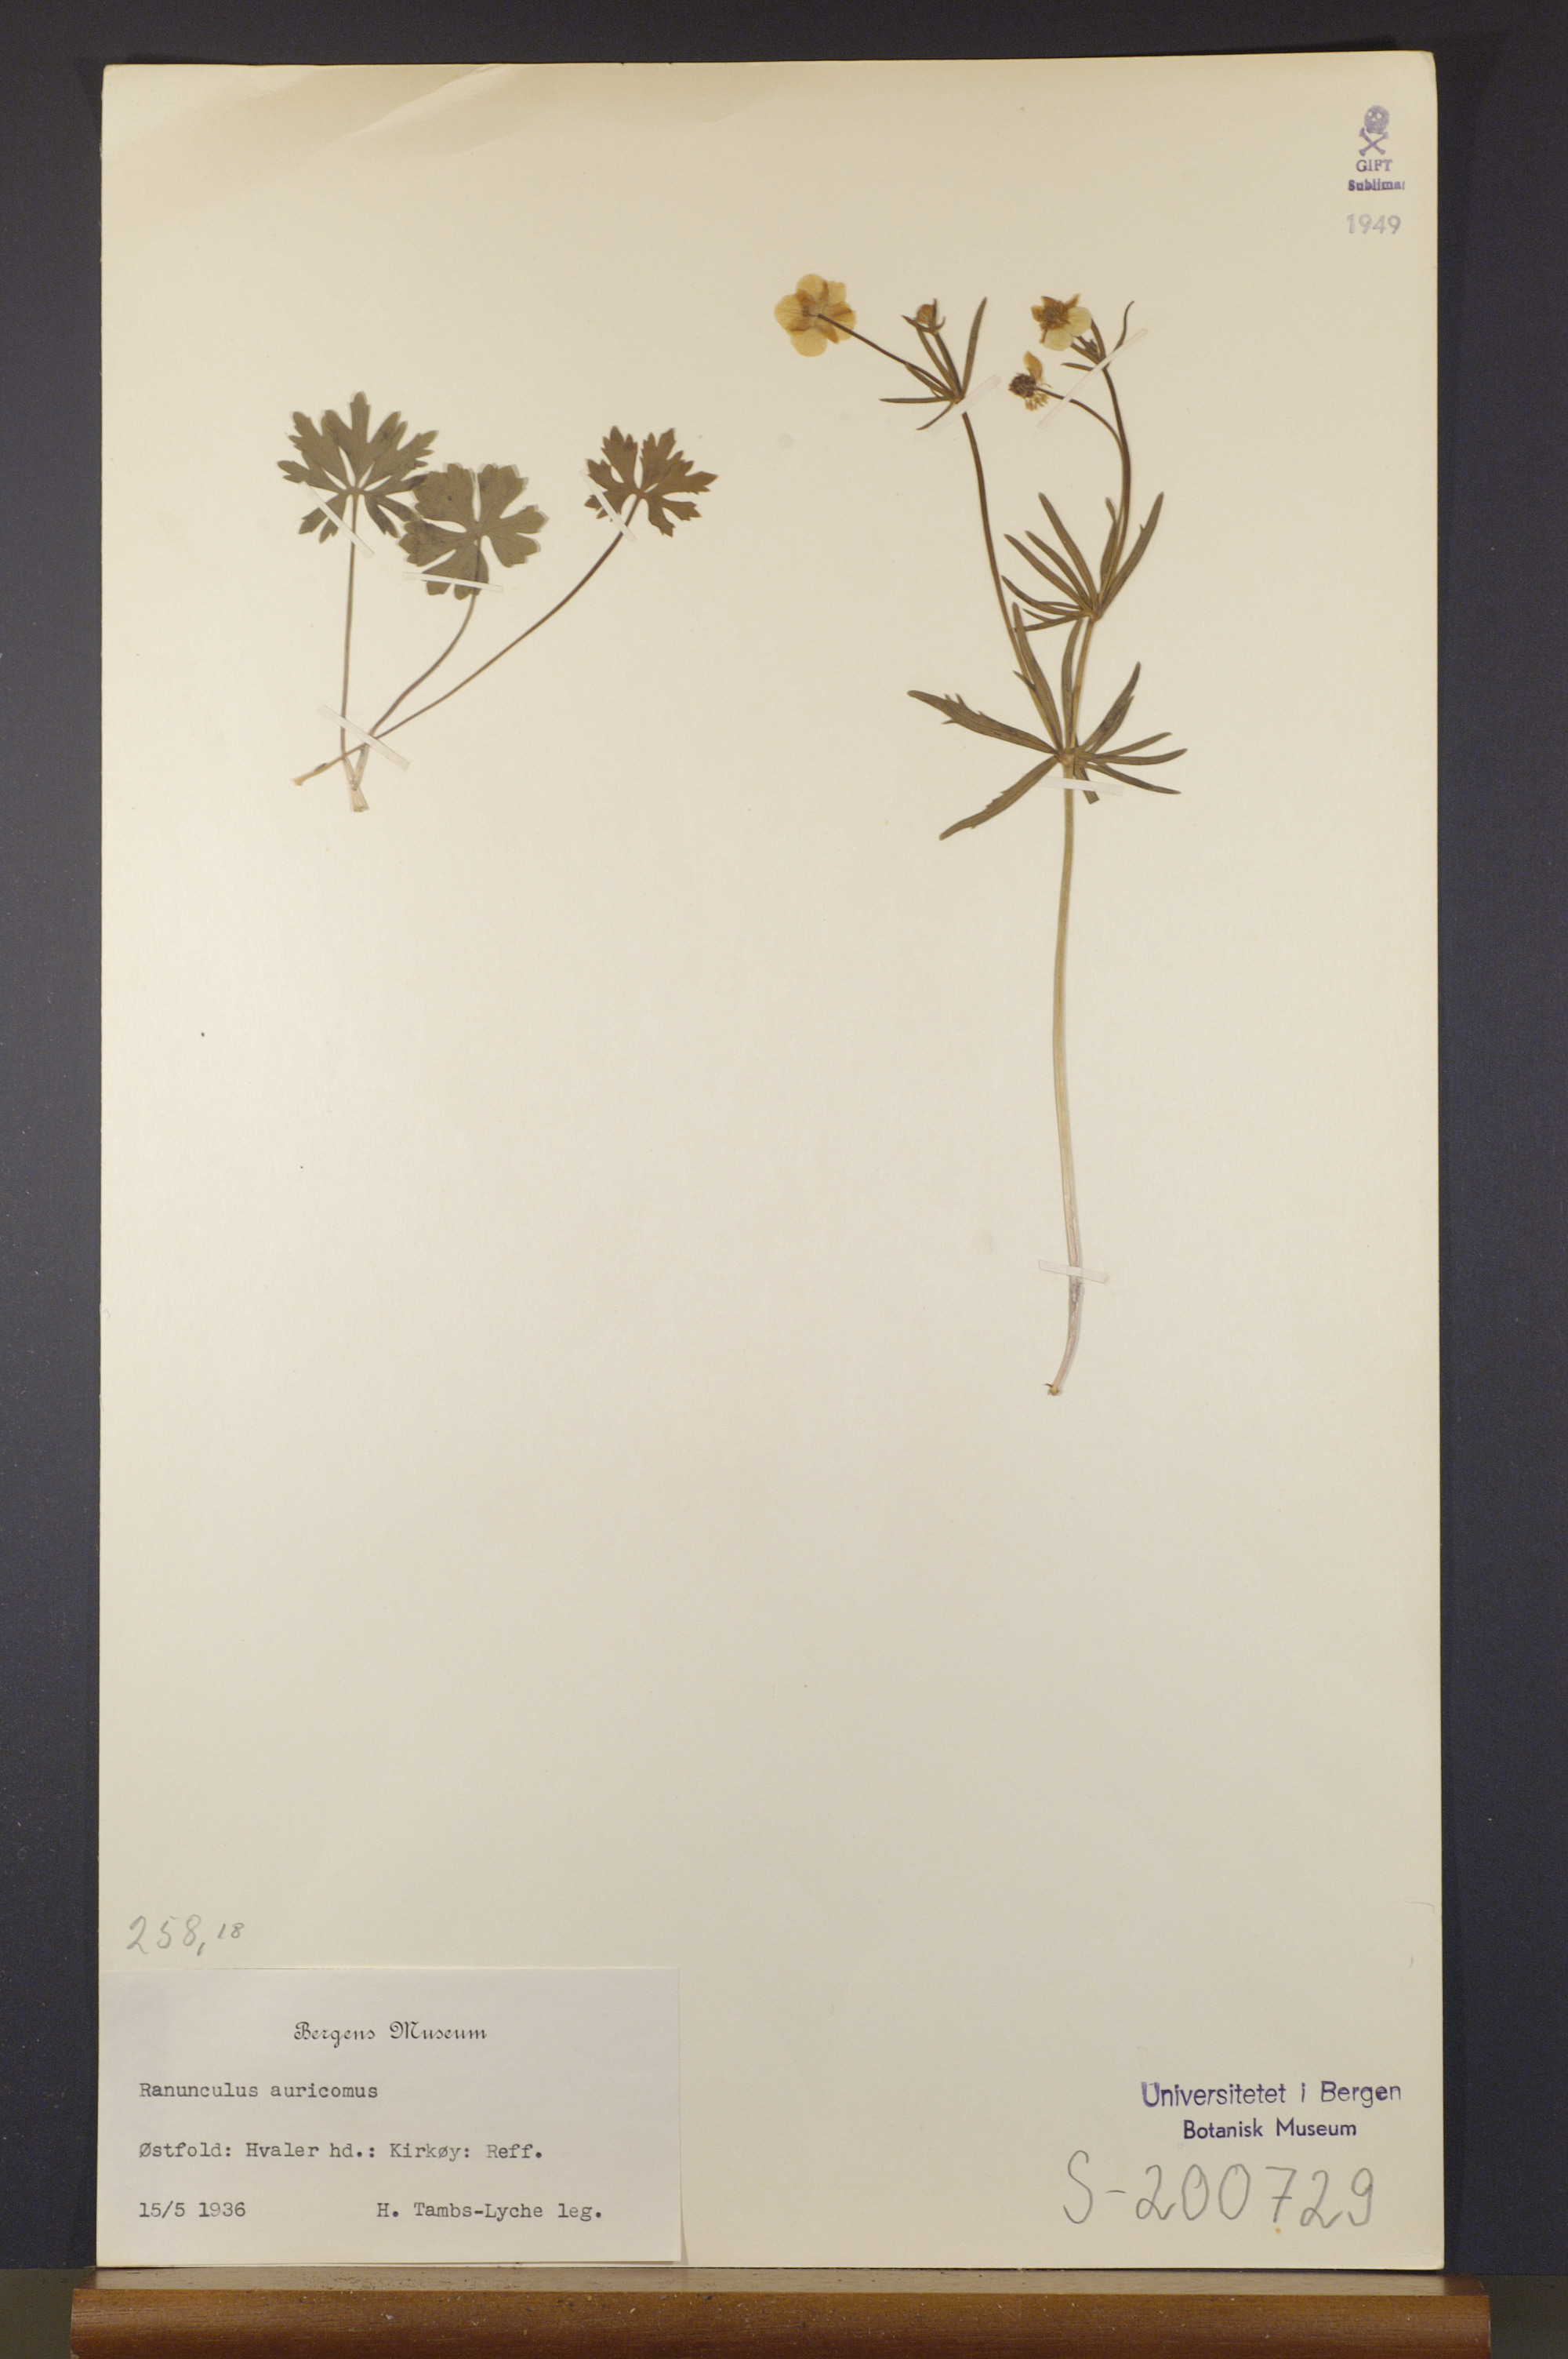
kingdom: Plantae
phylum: Tracheophyta
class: Magnoliopsida
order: Ranunculales
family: Ranunculaceae
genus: Ranunculus
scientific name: Ranunculus auricomus
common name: Goldilocks buttercup
